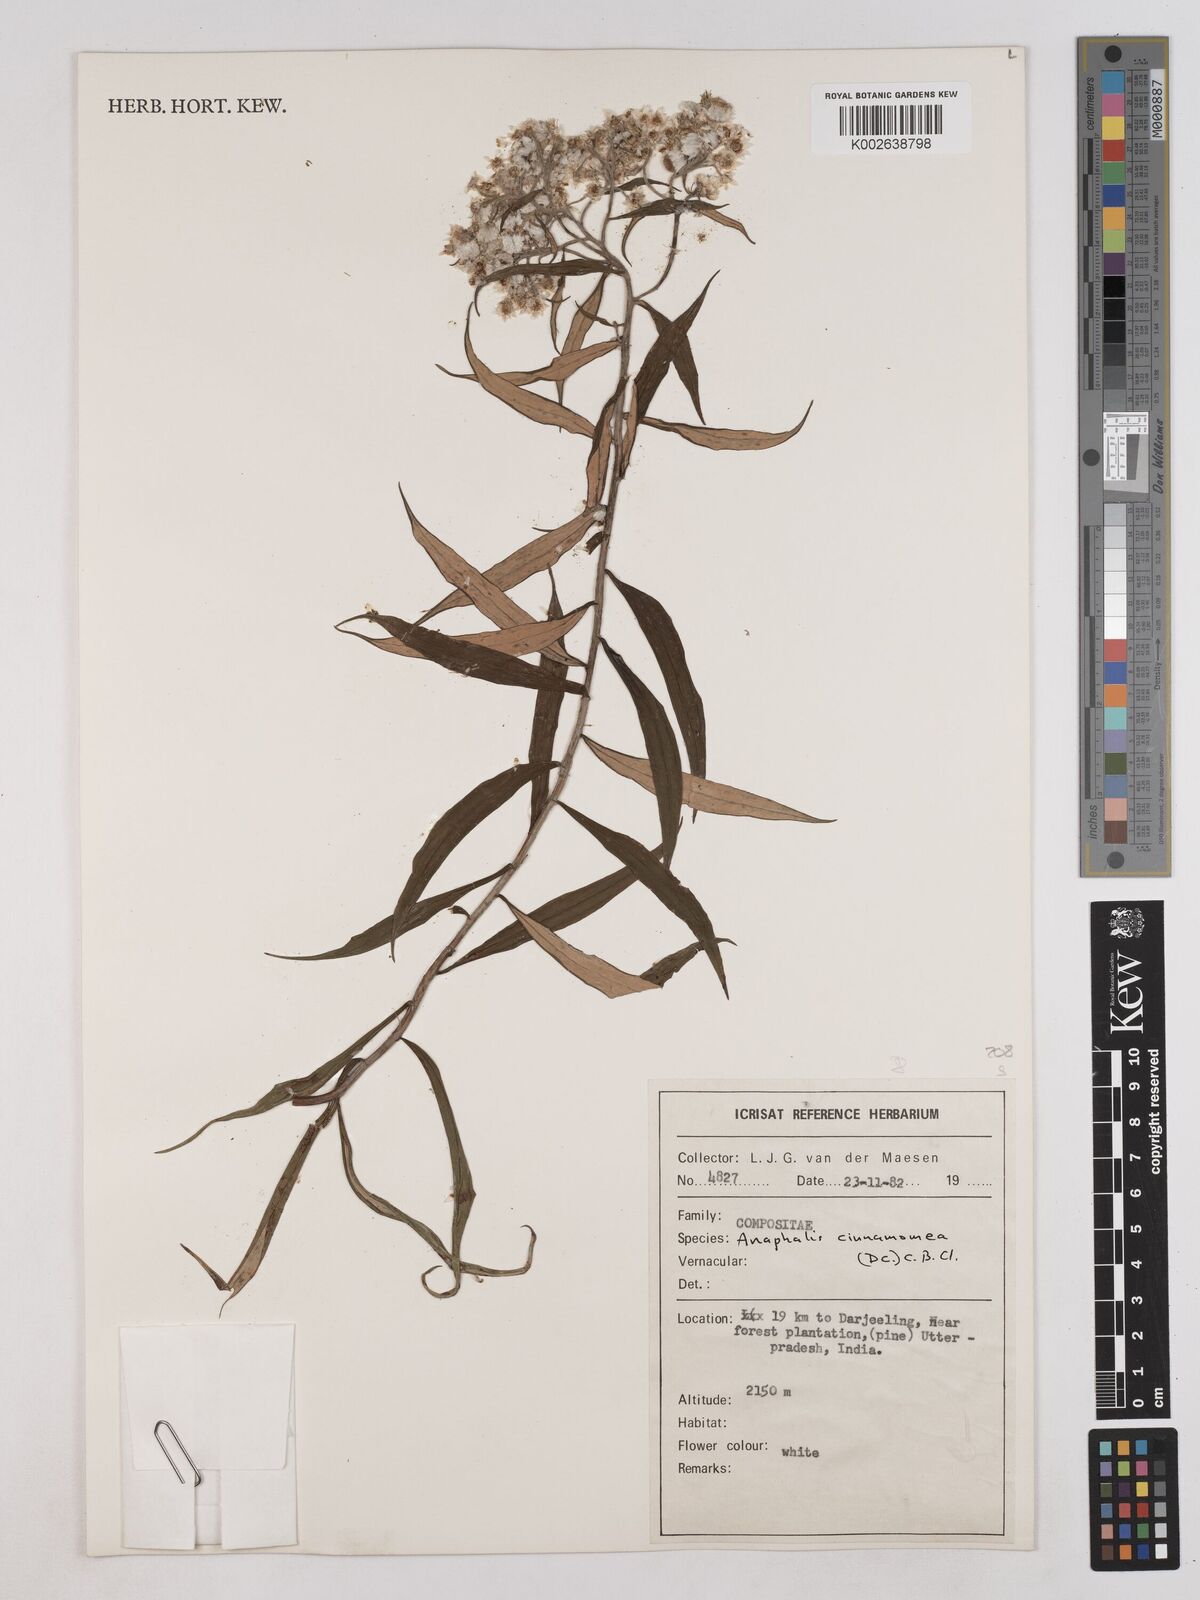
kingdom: Plantae
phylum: Tracheophyta
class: Magnoliopsida
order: Asterales
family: Asteraceae
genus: Anaphalis
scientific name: Anaphalis marcescens
